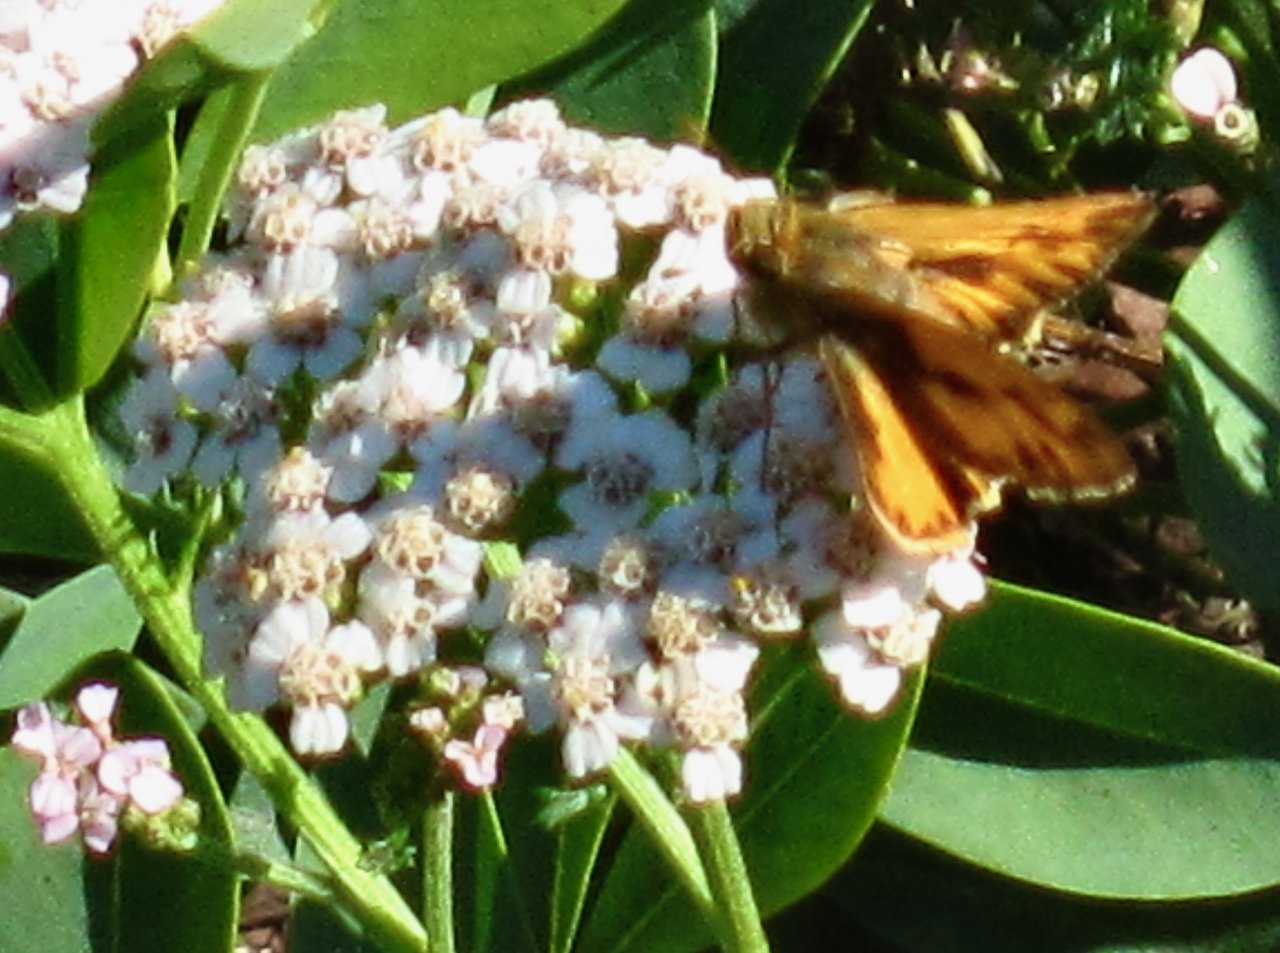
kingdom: Animalia
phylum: Arthropoda
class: Insecta
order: Lepidoptera
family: Hesperiidae
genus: Hylephila
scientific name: Hylephila phyleus
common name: Fiery Skipper
